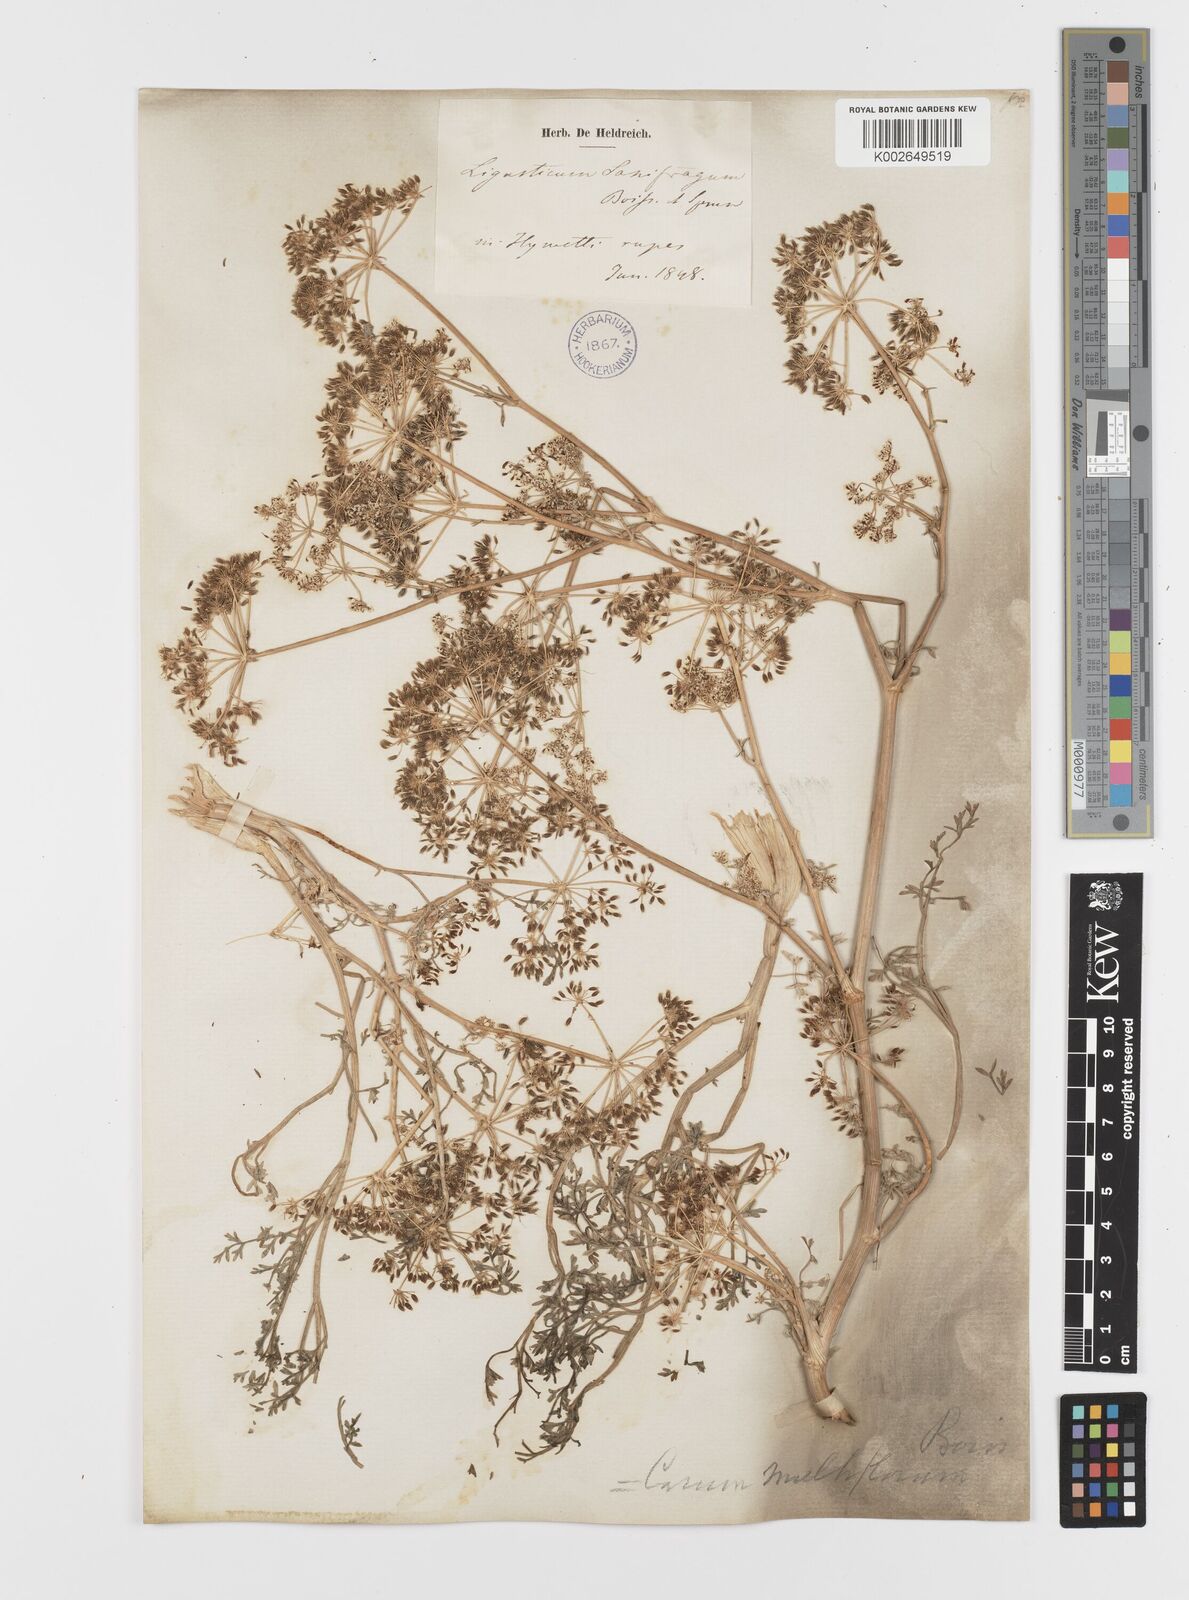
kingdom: Plantae
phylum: Tracheophyta
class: Magnoliopsida
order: Apiales
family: Apiaceae
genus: Hellenocarum
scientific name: Hellenocarum multiflorum
